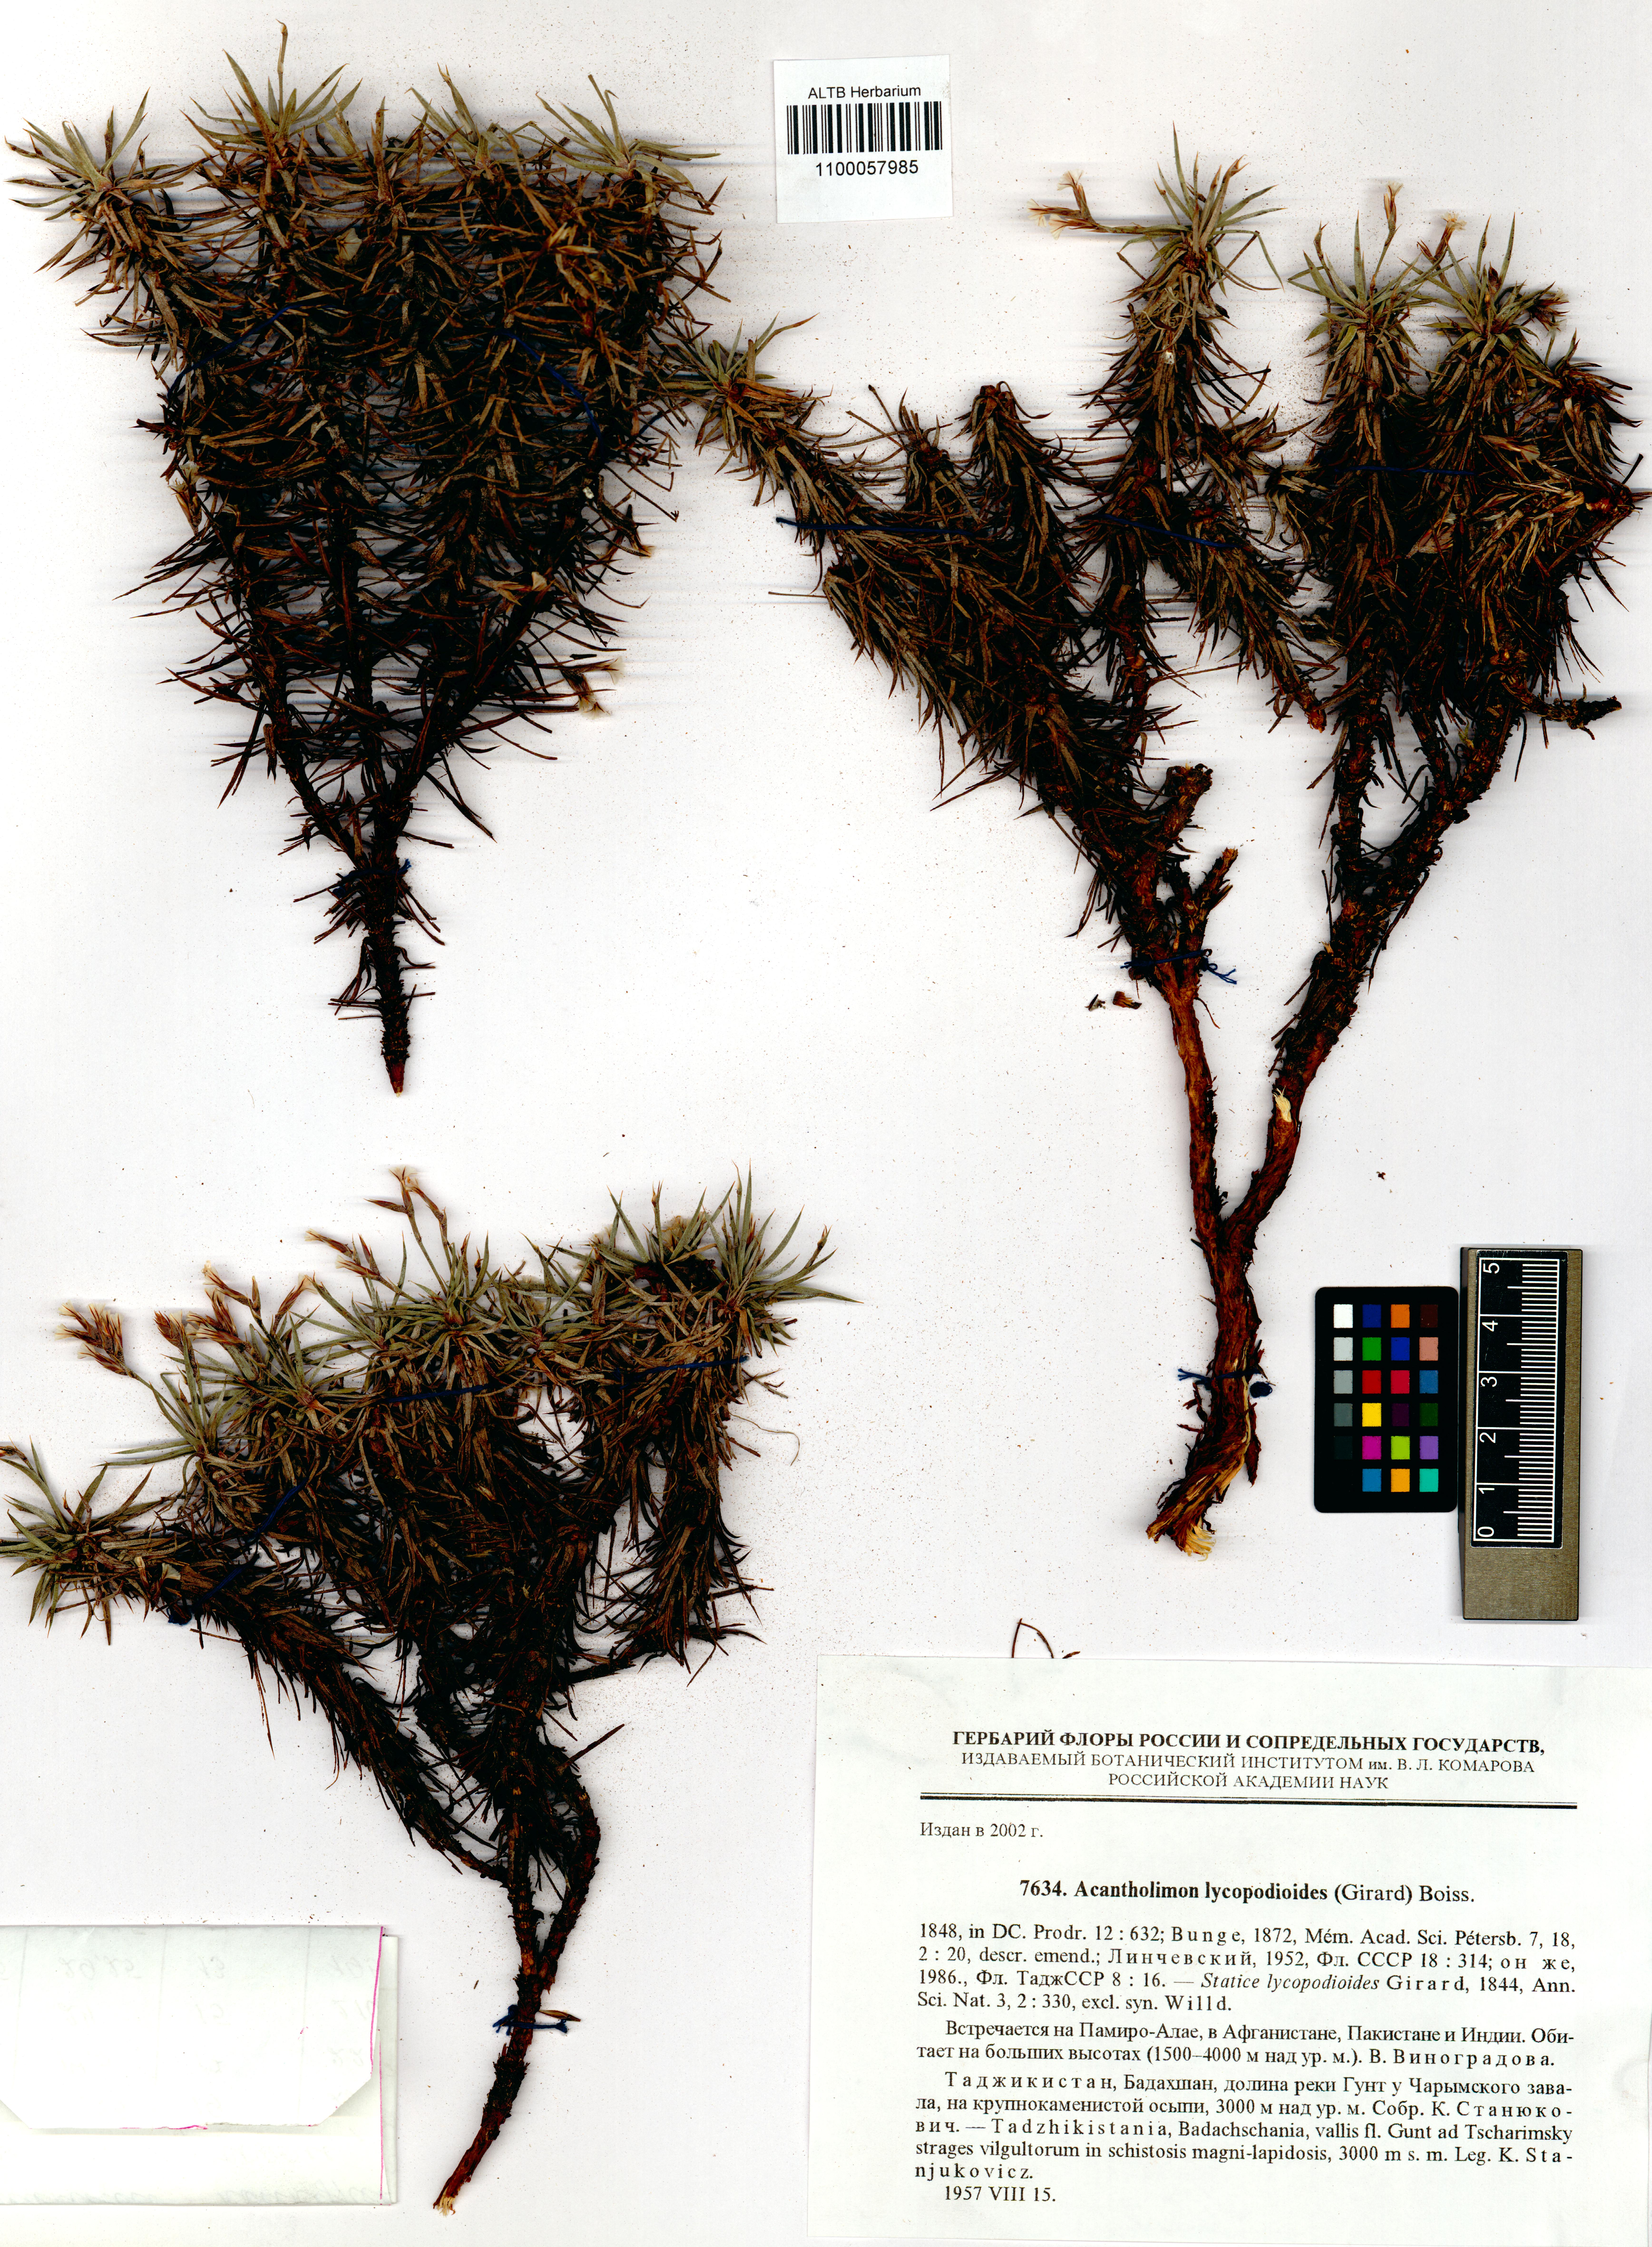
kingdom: Plantae
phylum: Tracheophyta
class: Magnoliopsida
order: Caryophyllales
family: Plumbaginaceae
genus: Acantholimon
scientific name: Acantholimon lycopodioides
